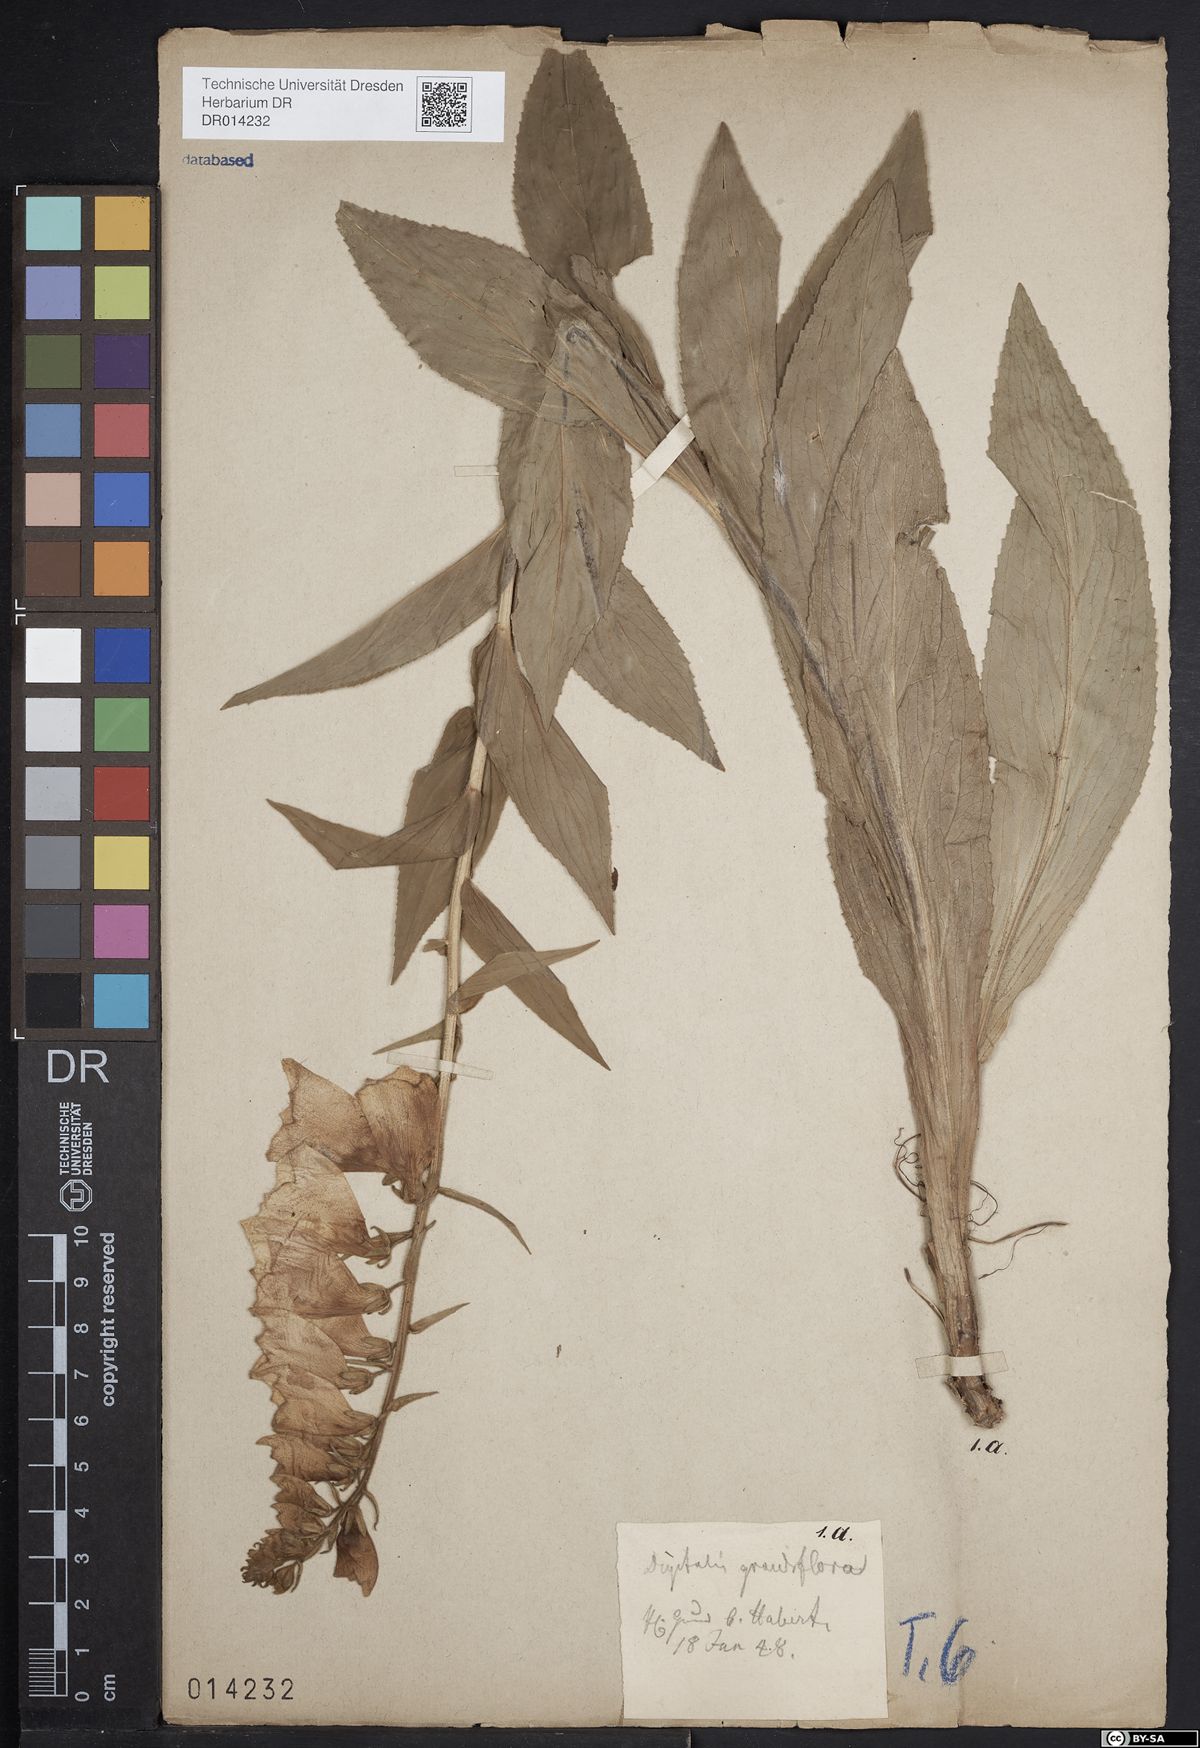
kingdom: Plantae
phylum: Tracheophyta
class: Magnoliopsida
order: Lamiales
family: Plantaginaceae
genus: Digitalis
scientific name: Digitalis grandiflora
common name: Yellow foxglove
